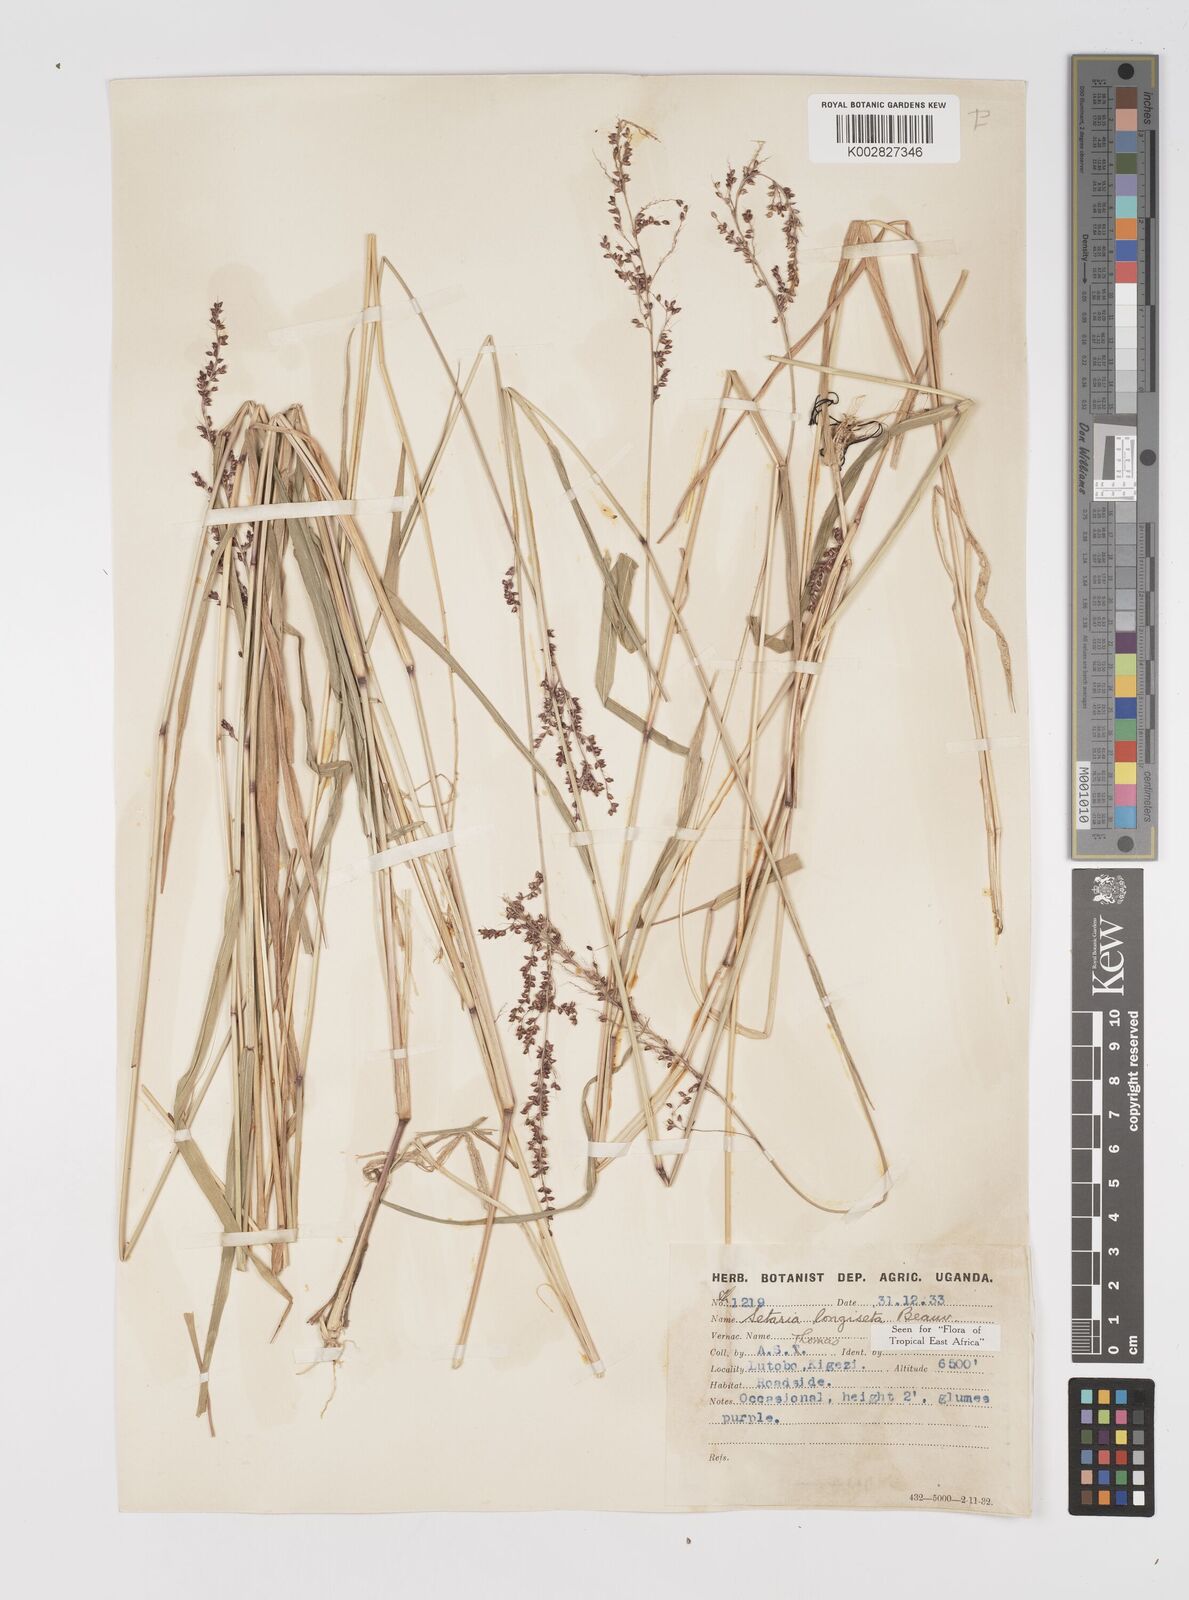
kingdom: Plantae
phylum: Tracheophyta
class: Liliopsida
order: Poales
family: Poaceae
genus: Setaria
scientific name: Setaria longiseta
